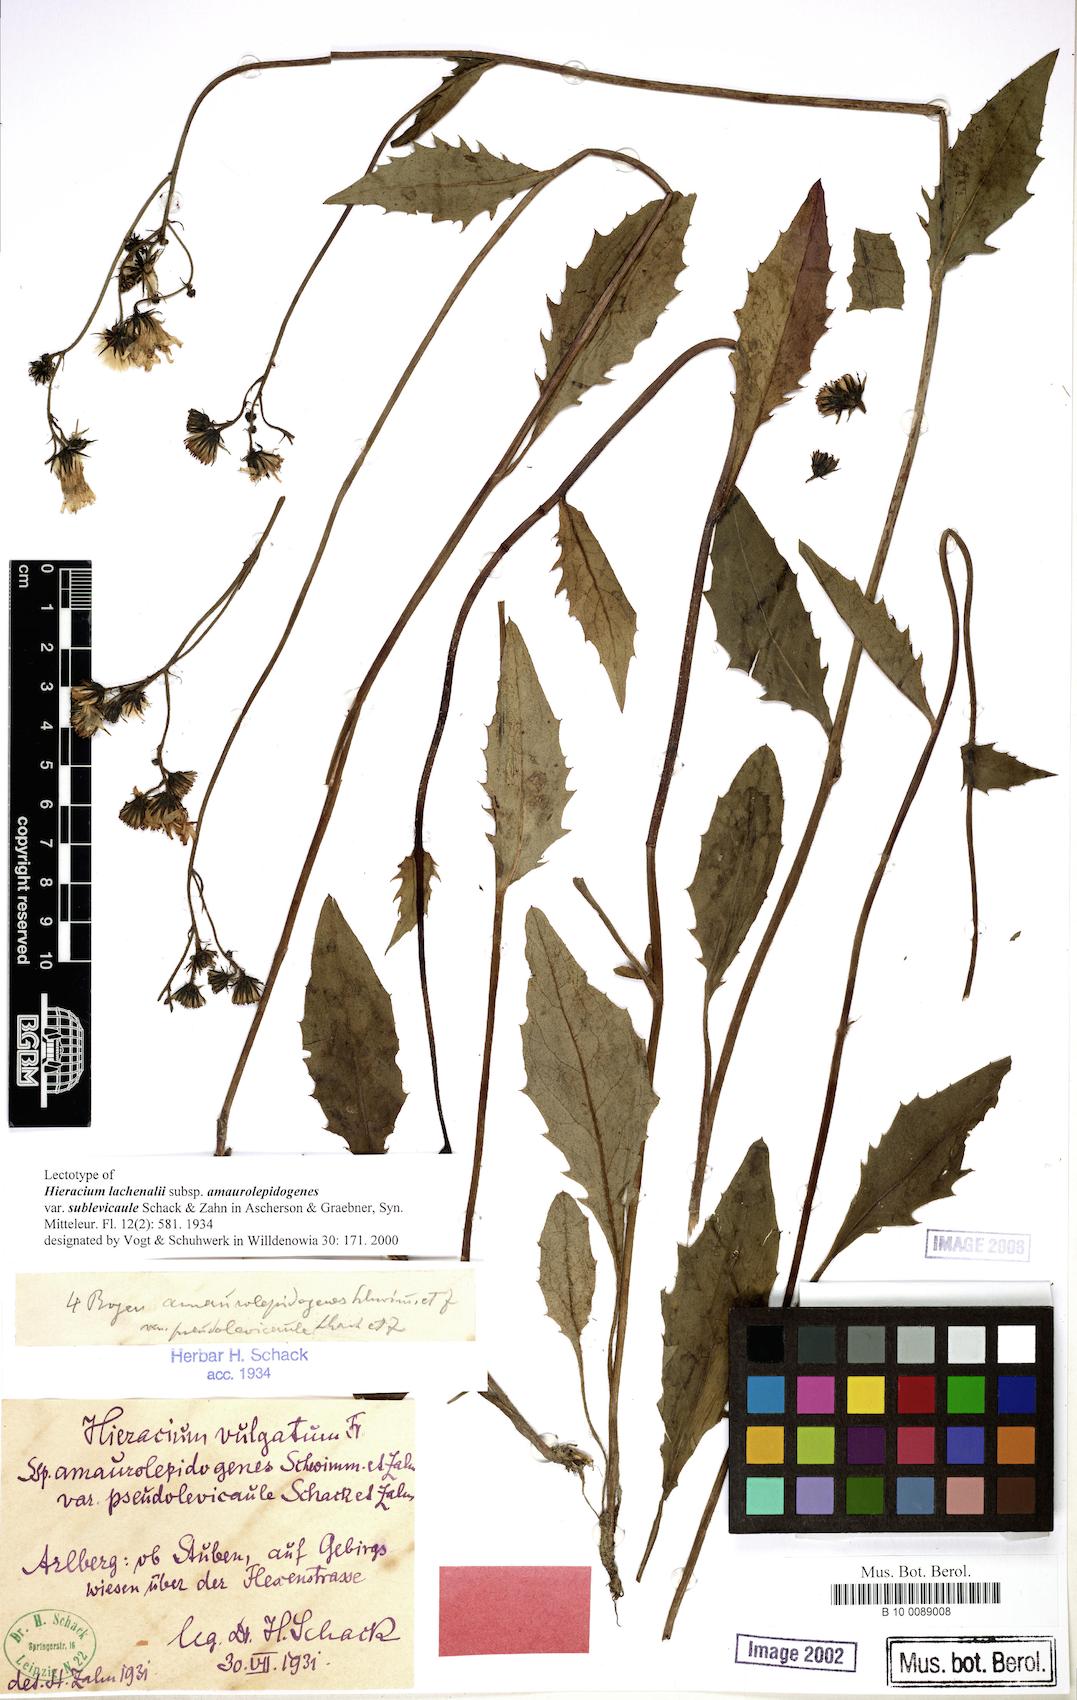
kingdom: Plantae
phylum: Tracheophyta
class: Magnoliopsida
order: Asterales
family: Asteraceae
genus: Hieracium
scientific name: Hieracium lachenalii
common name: Common hawkweed
